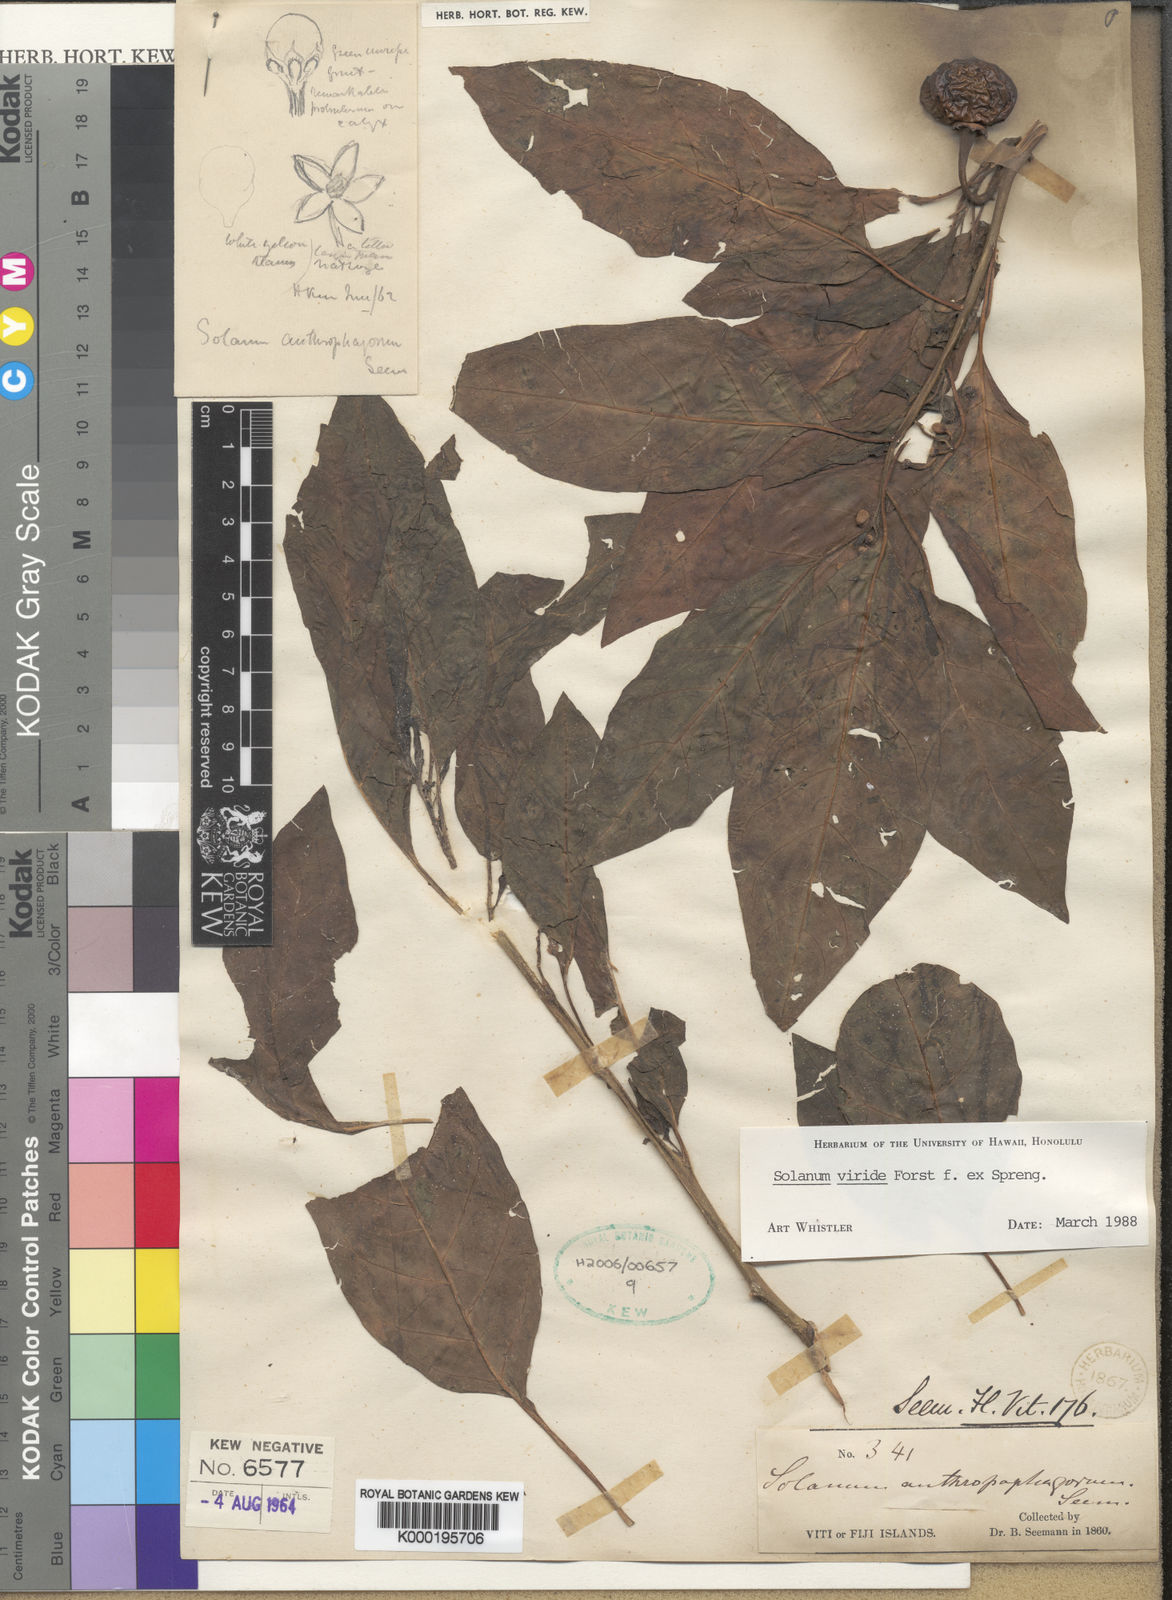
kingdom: Plantae
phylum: Tracheophyta
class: Magnoliopsida
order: Solanales
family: Solanaceae
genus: Solanum
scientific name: Solanum
